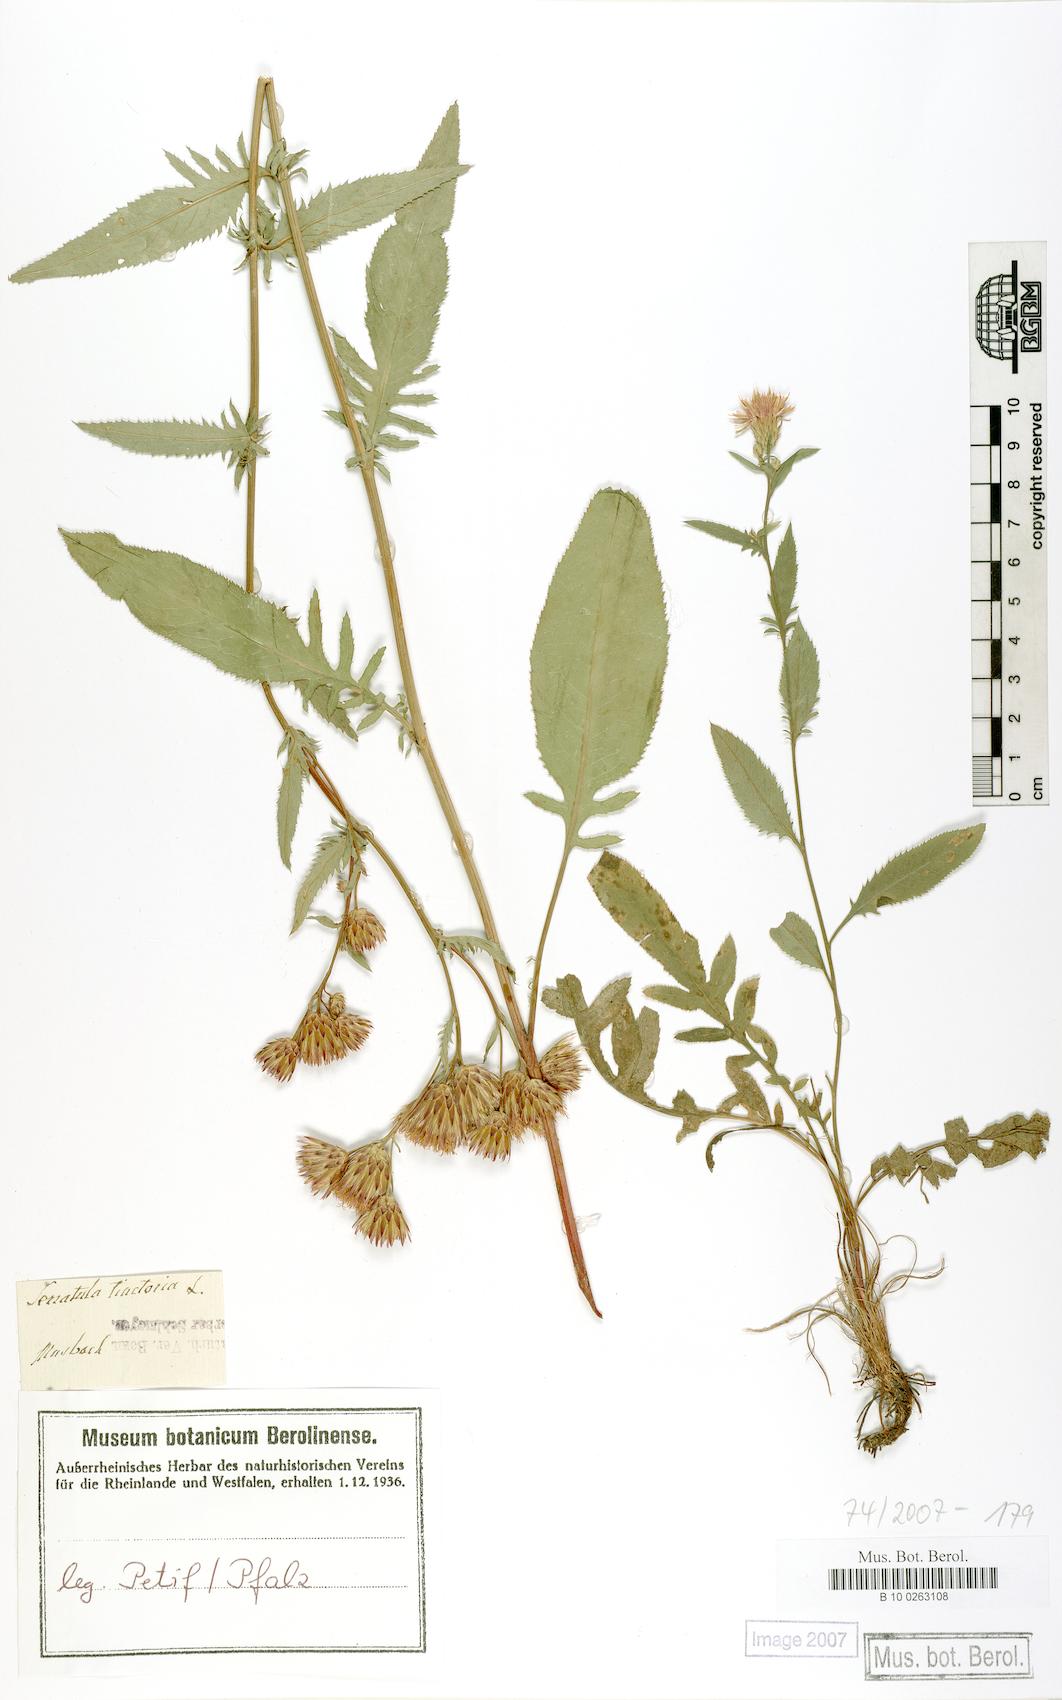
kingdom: Plantae
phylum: Tracheophyta
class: Magnoliopsida
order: Asterales
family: Asteraceae
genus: Serratula
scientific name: Serratula tinctoria
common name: Saw-wort
